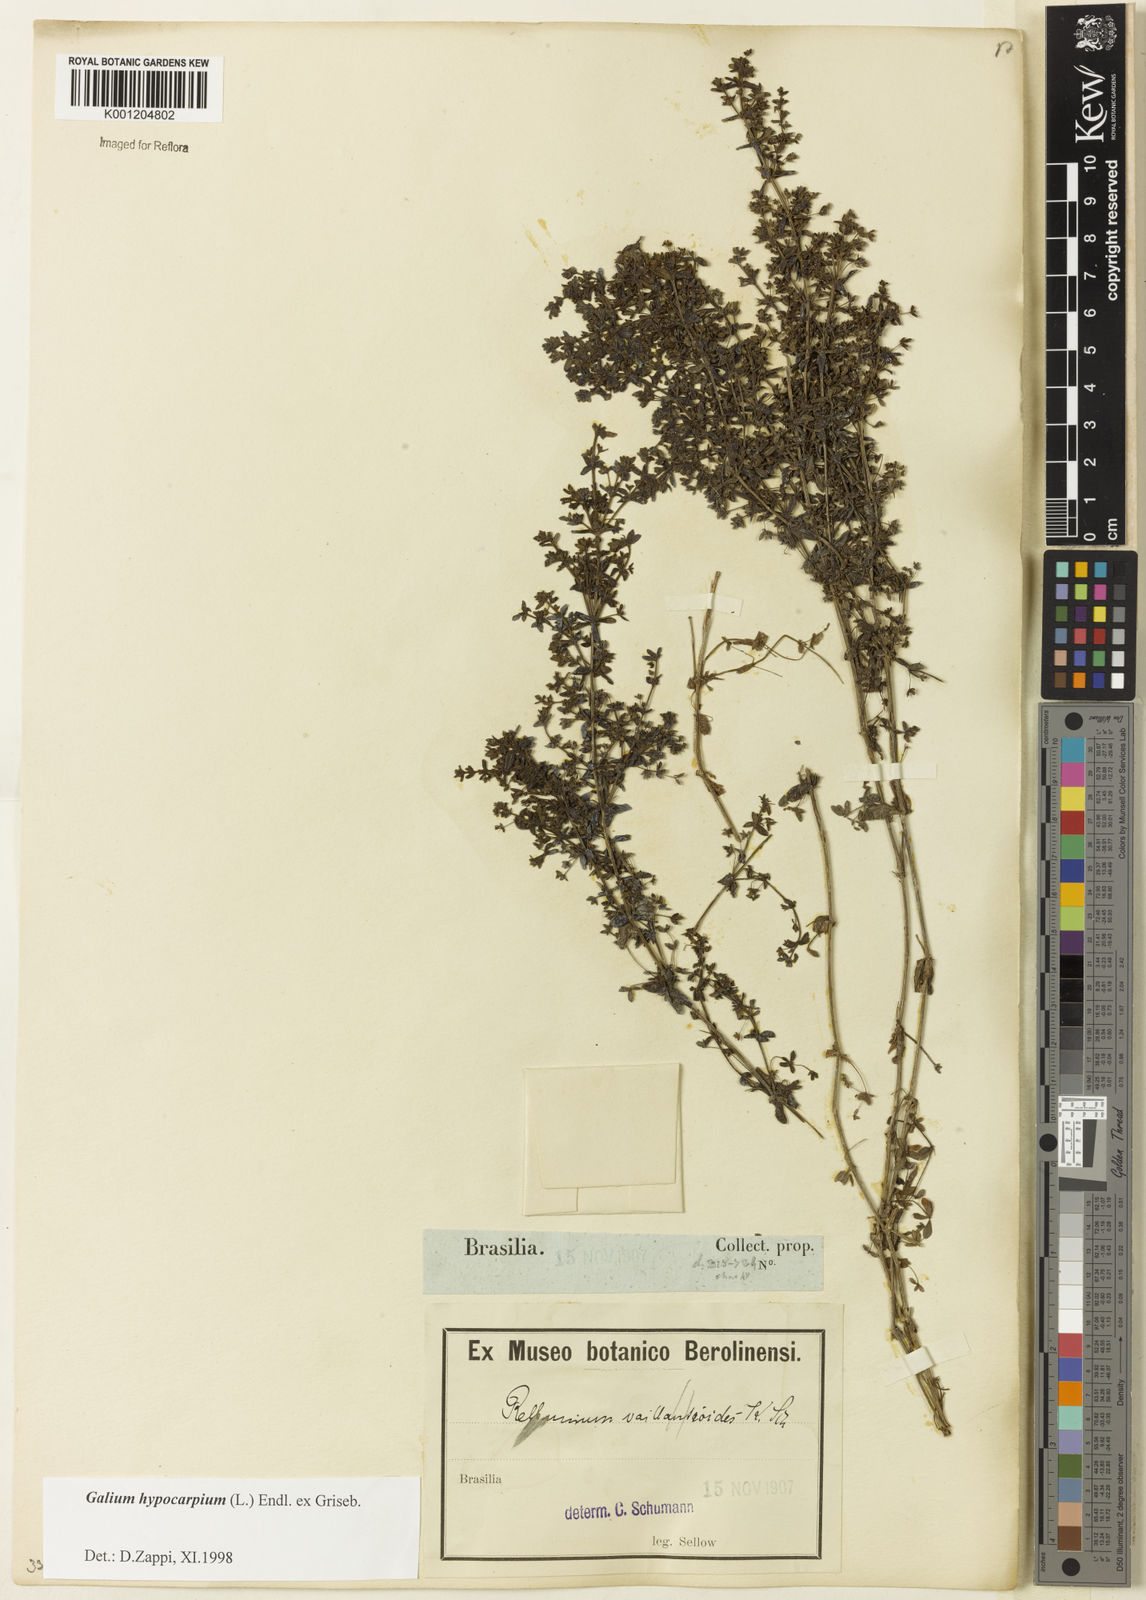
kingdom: Plantae
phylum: Tracheophyta
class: Magnoliopsida
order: Gentianales
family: Rubiaceae
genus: Galium
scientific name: Galium hypocarpium
